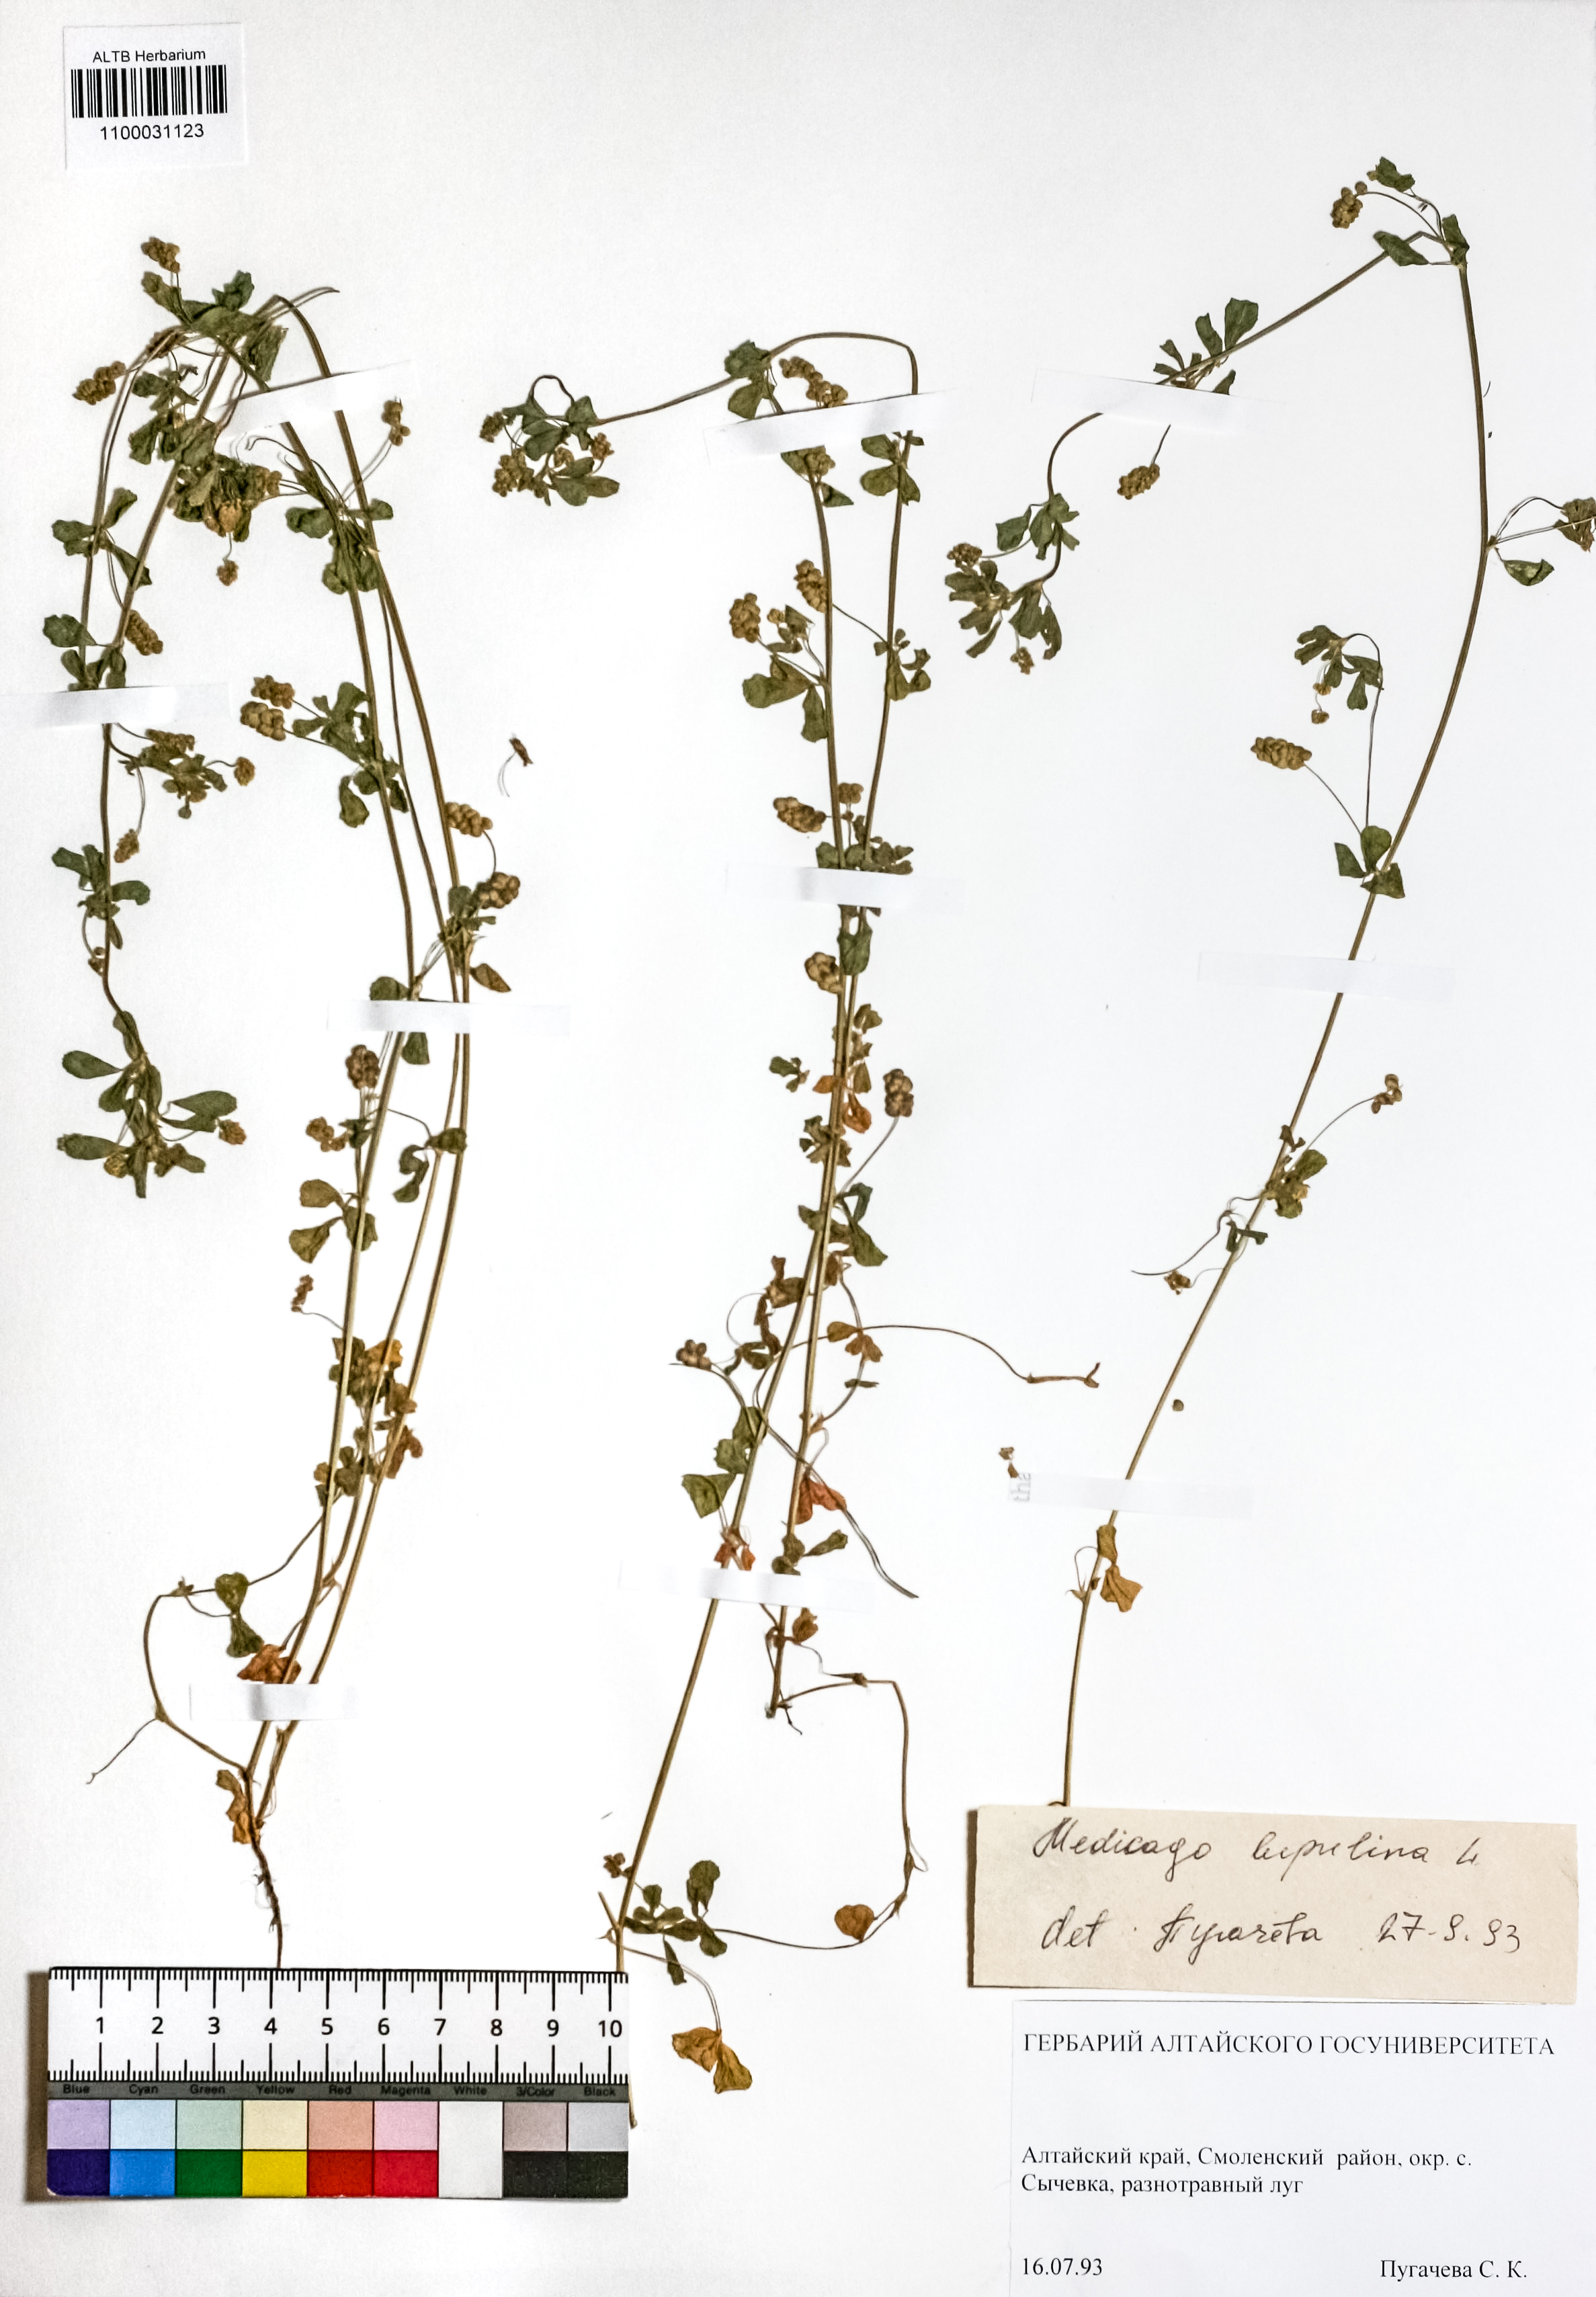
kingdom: Plantae
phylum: Tracheophyta
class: Magnoliopsida
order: Fabales
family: Fabaceae
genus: Medicago
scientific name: Medicago lupulina
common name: Black medick
